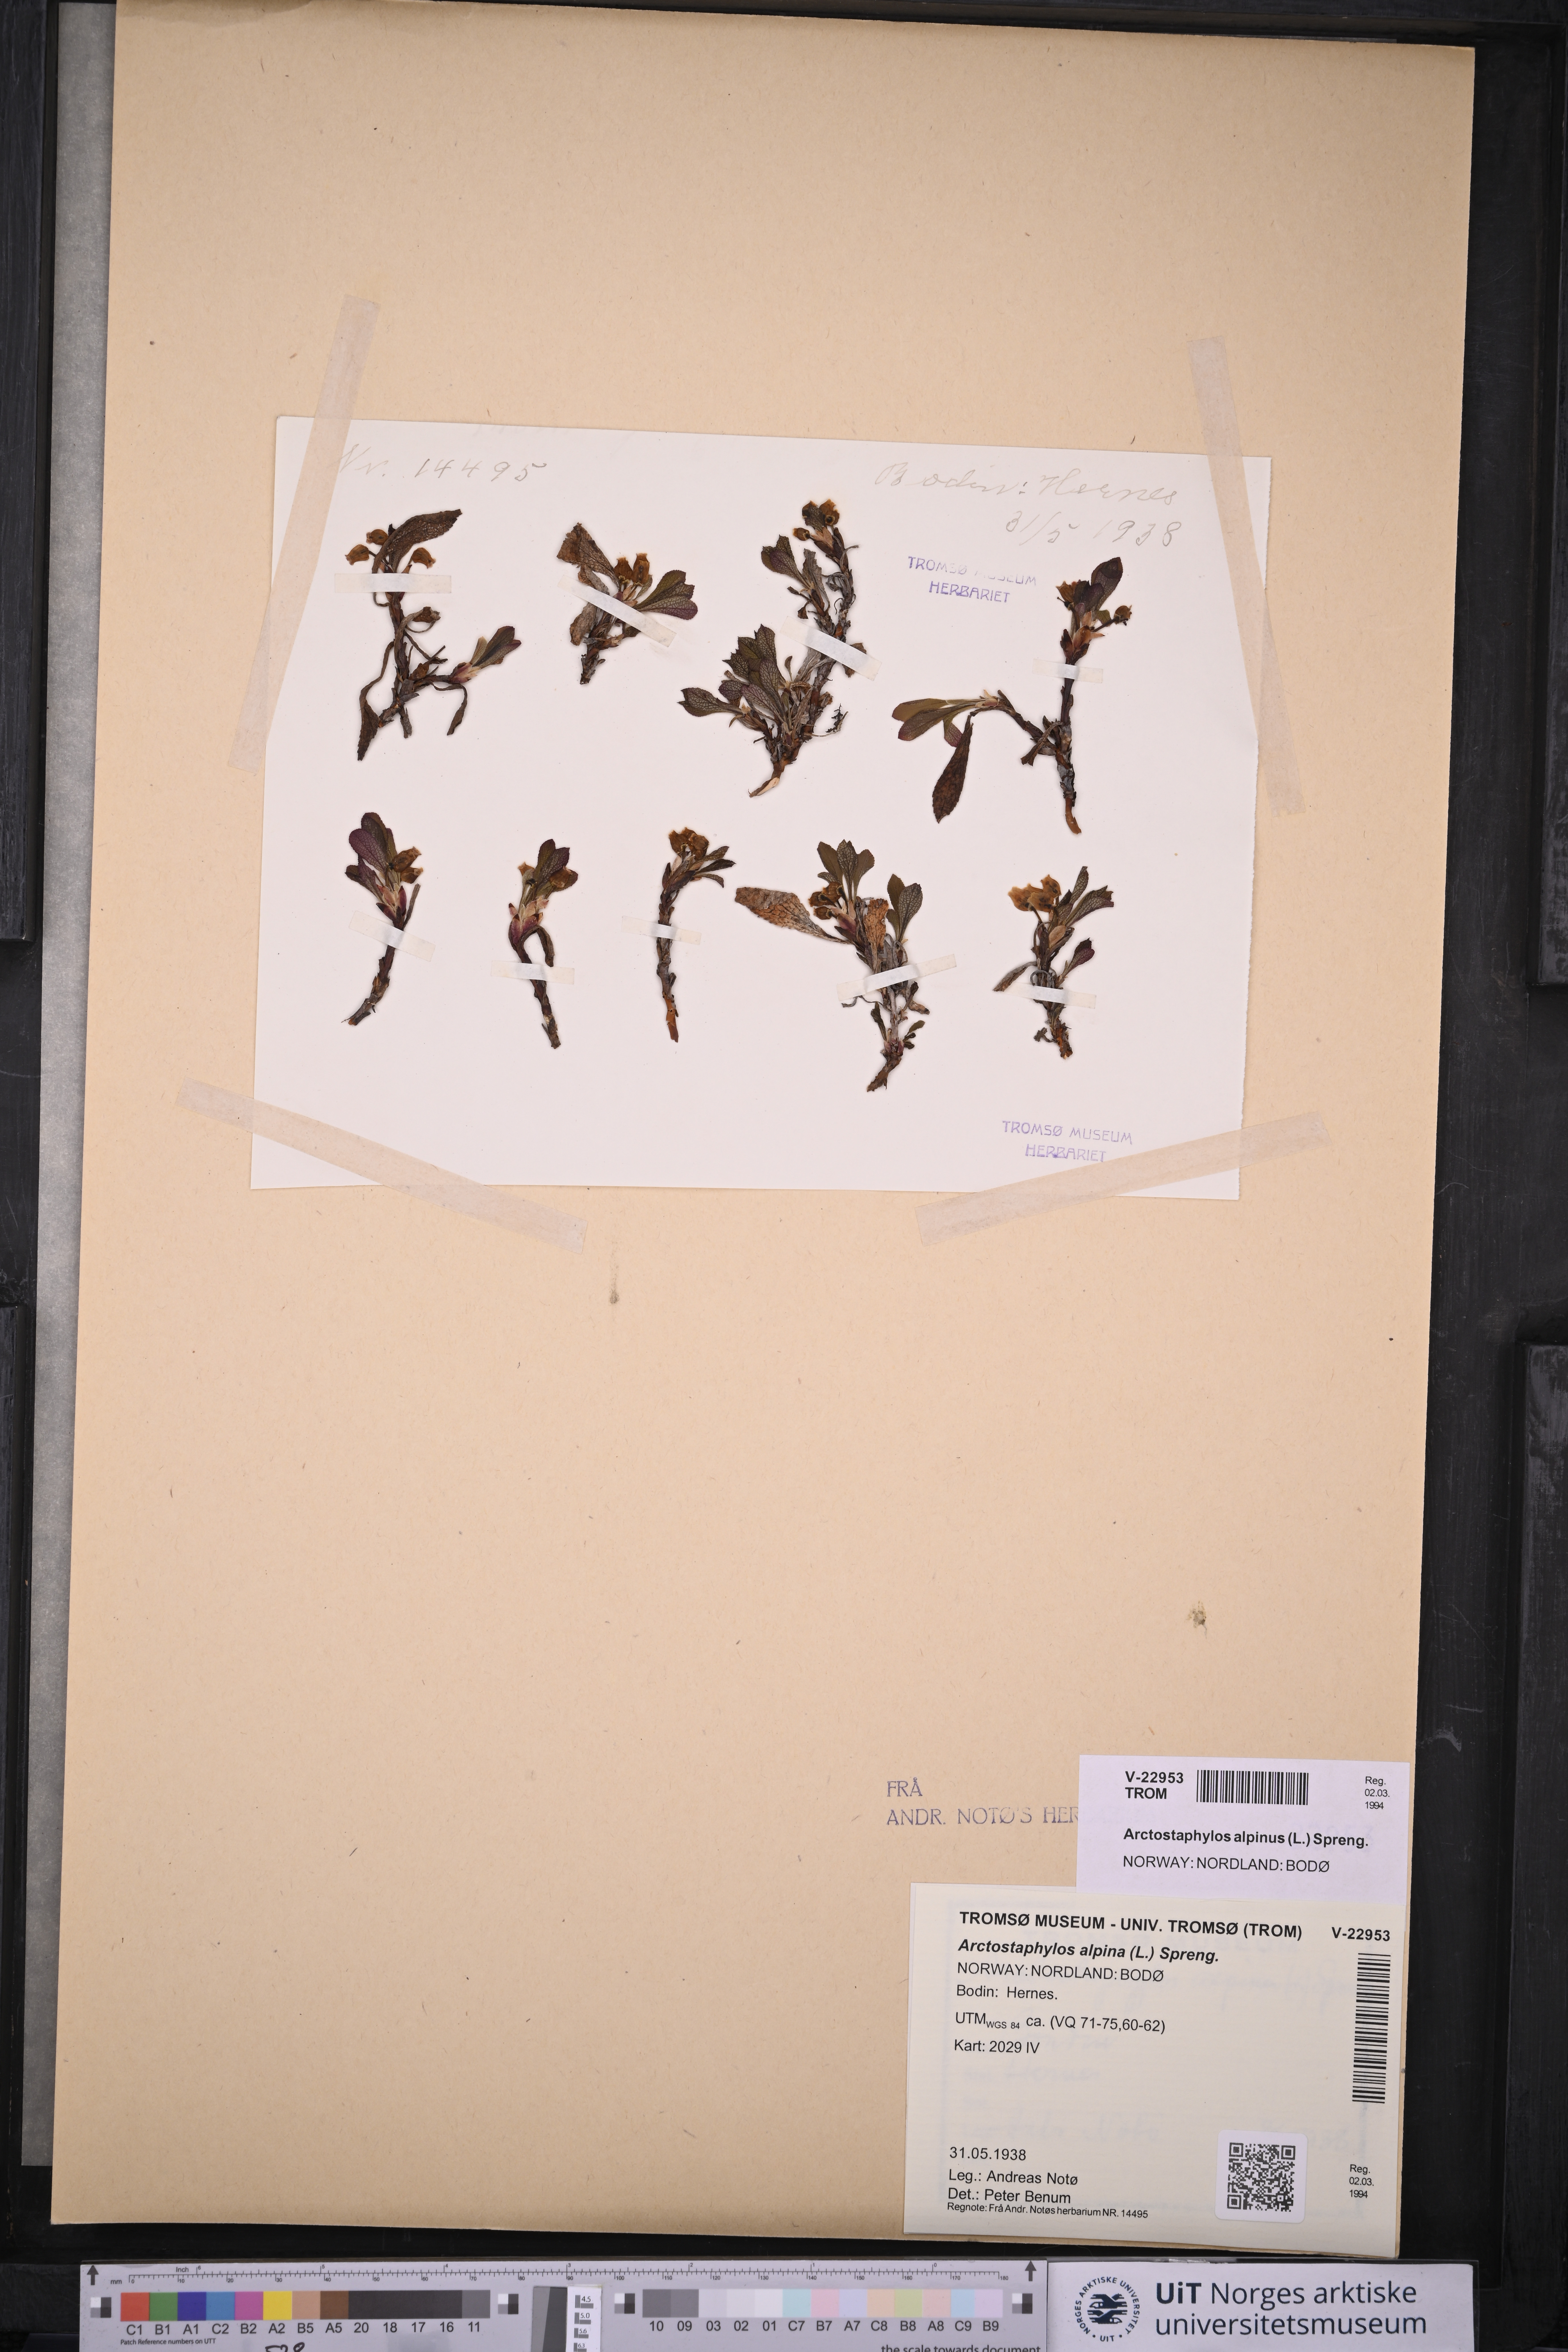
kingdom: Plantae
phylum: Tracheophyta
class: Magnoliopsida
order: Ericales
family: Ericaceae
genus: Arctostaphylos
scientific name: Arctostaphylos alpinus
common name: Alpine bearberry
